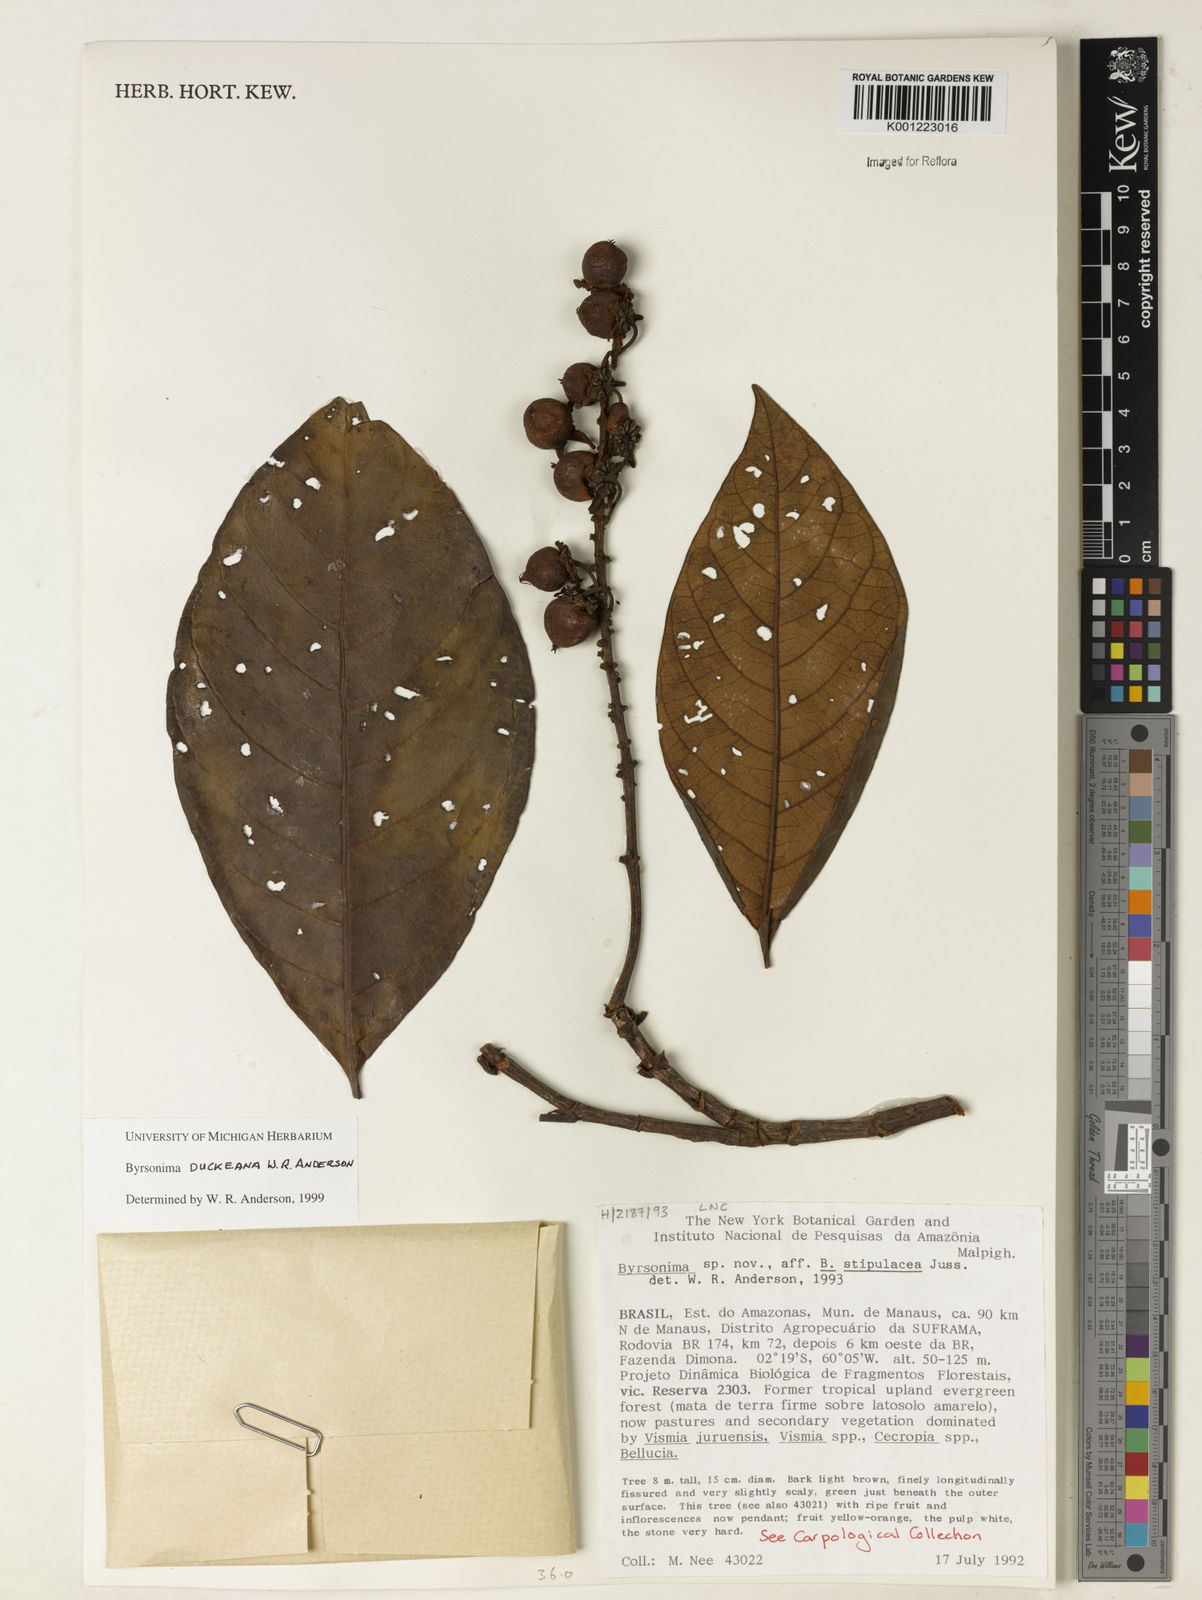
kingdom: Plantae
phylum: Tracheophyta
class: Magnoliopsida
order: Malpighiales
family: Malpighiaceae
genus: Byrsonima
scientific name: Byrsonima duckeana
